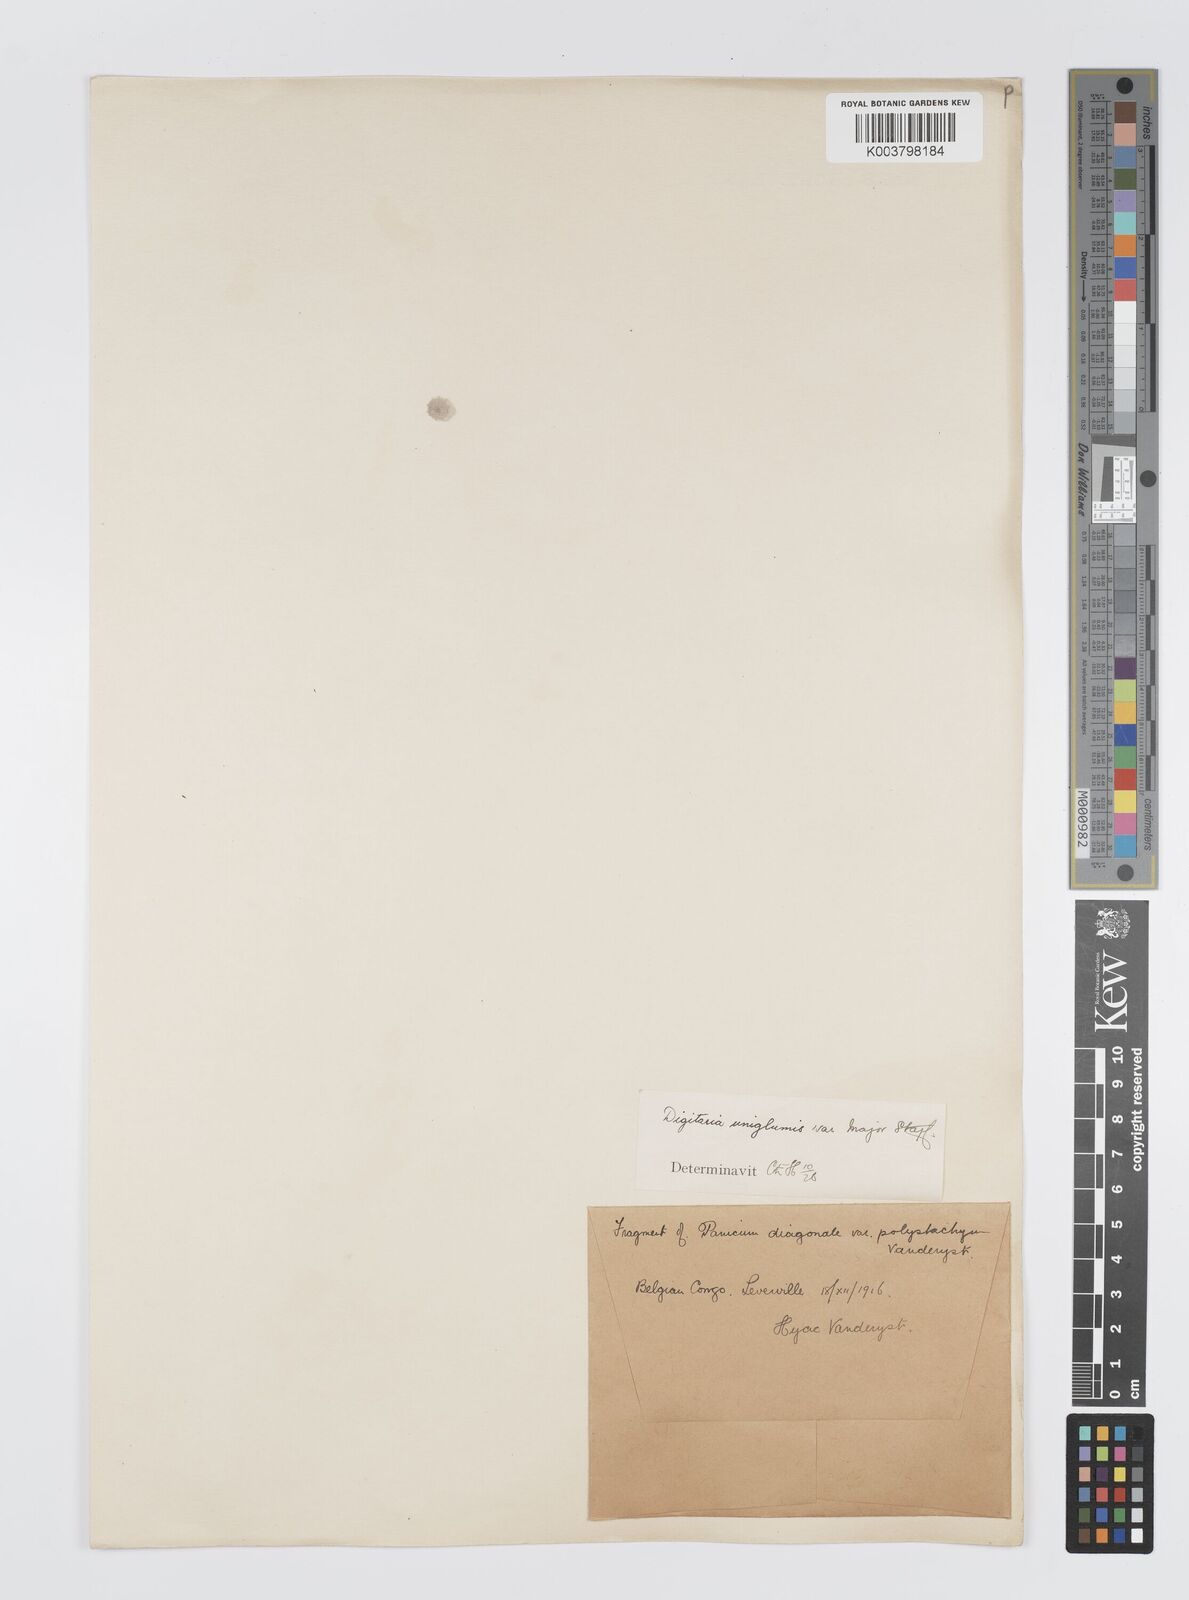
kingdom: Plantae
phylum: Tracheophyta
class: Liliopsida
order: Poales
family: Poaceae
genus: Digitaria
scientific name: Digitaria diagonalis
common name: Brown-seed finger grass
